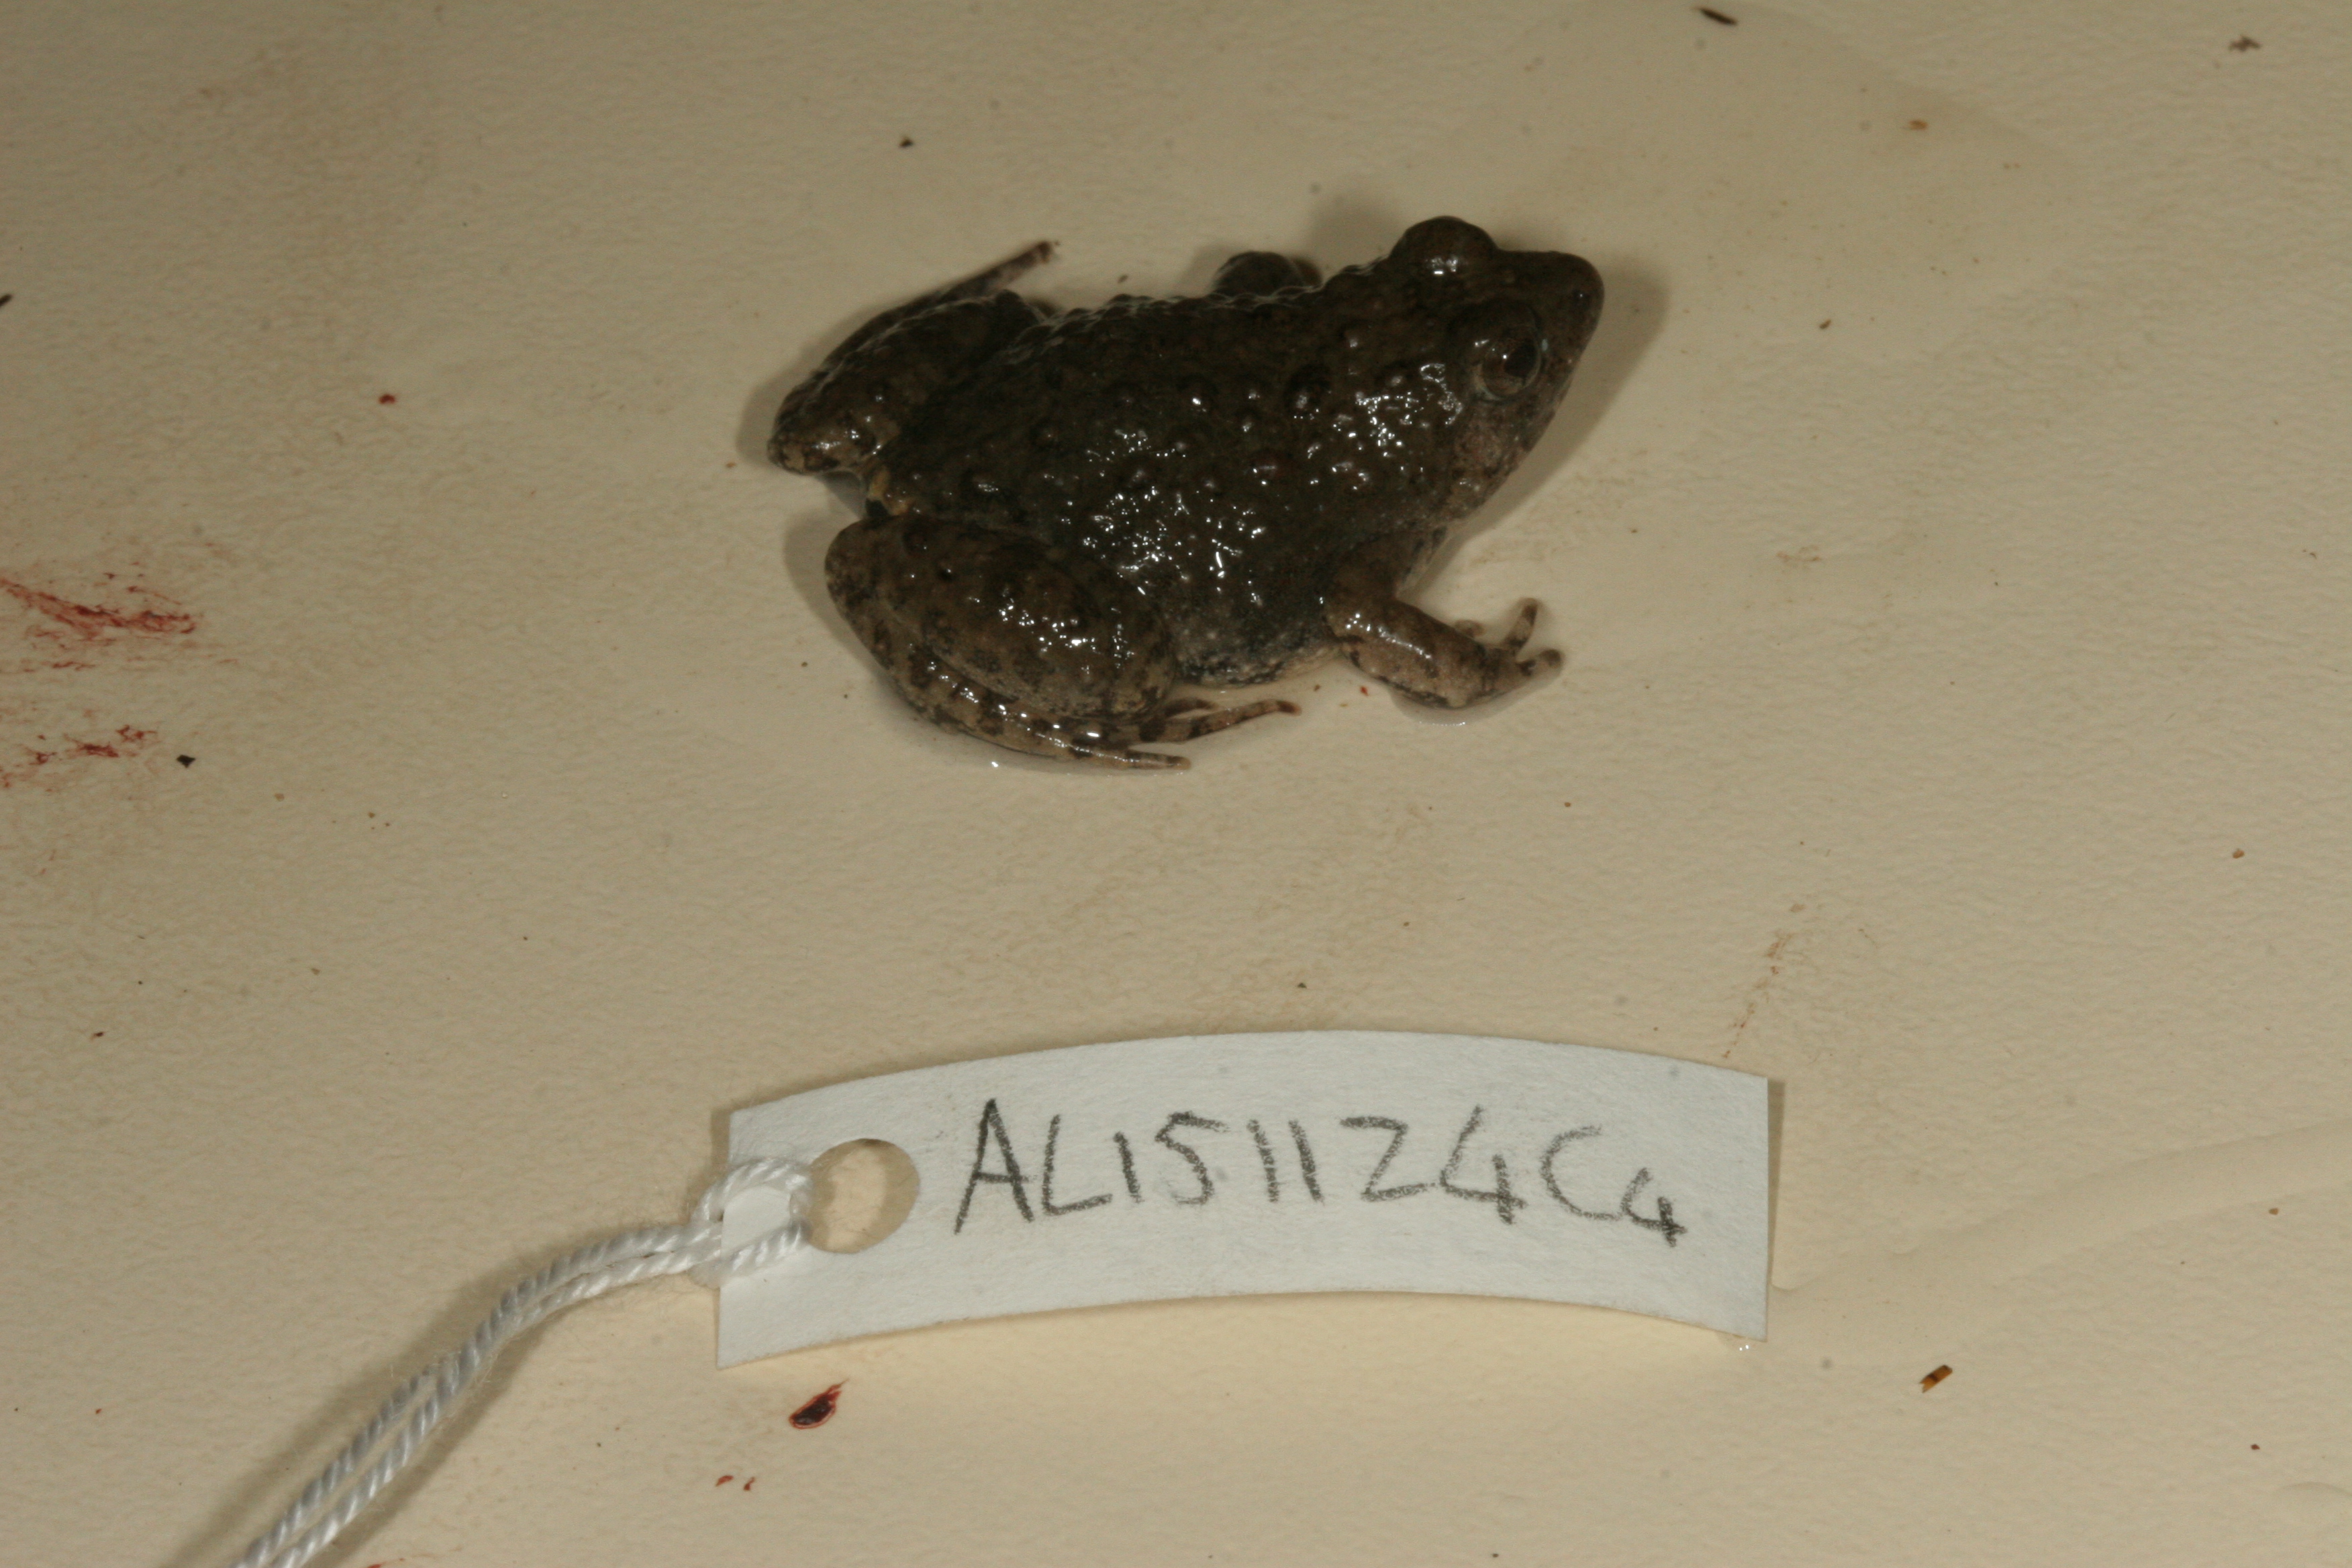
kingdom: Animalia
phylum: Chordata
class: Amphibia
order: Anura
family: Phrynobatrachidae
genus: Phrynobatrachus
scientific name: Phrynobatrachus natalensis
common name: Snoring puddle frog
